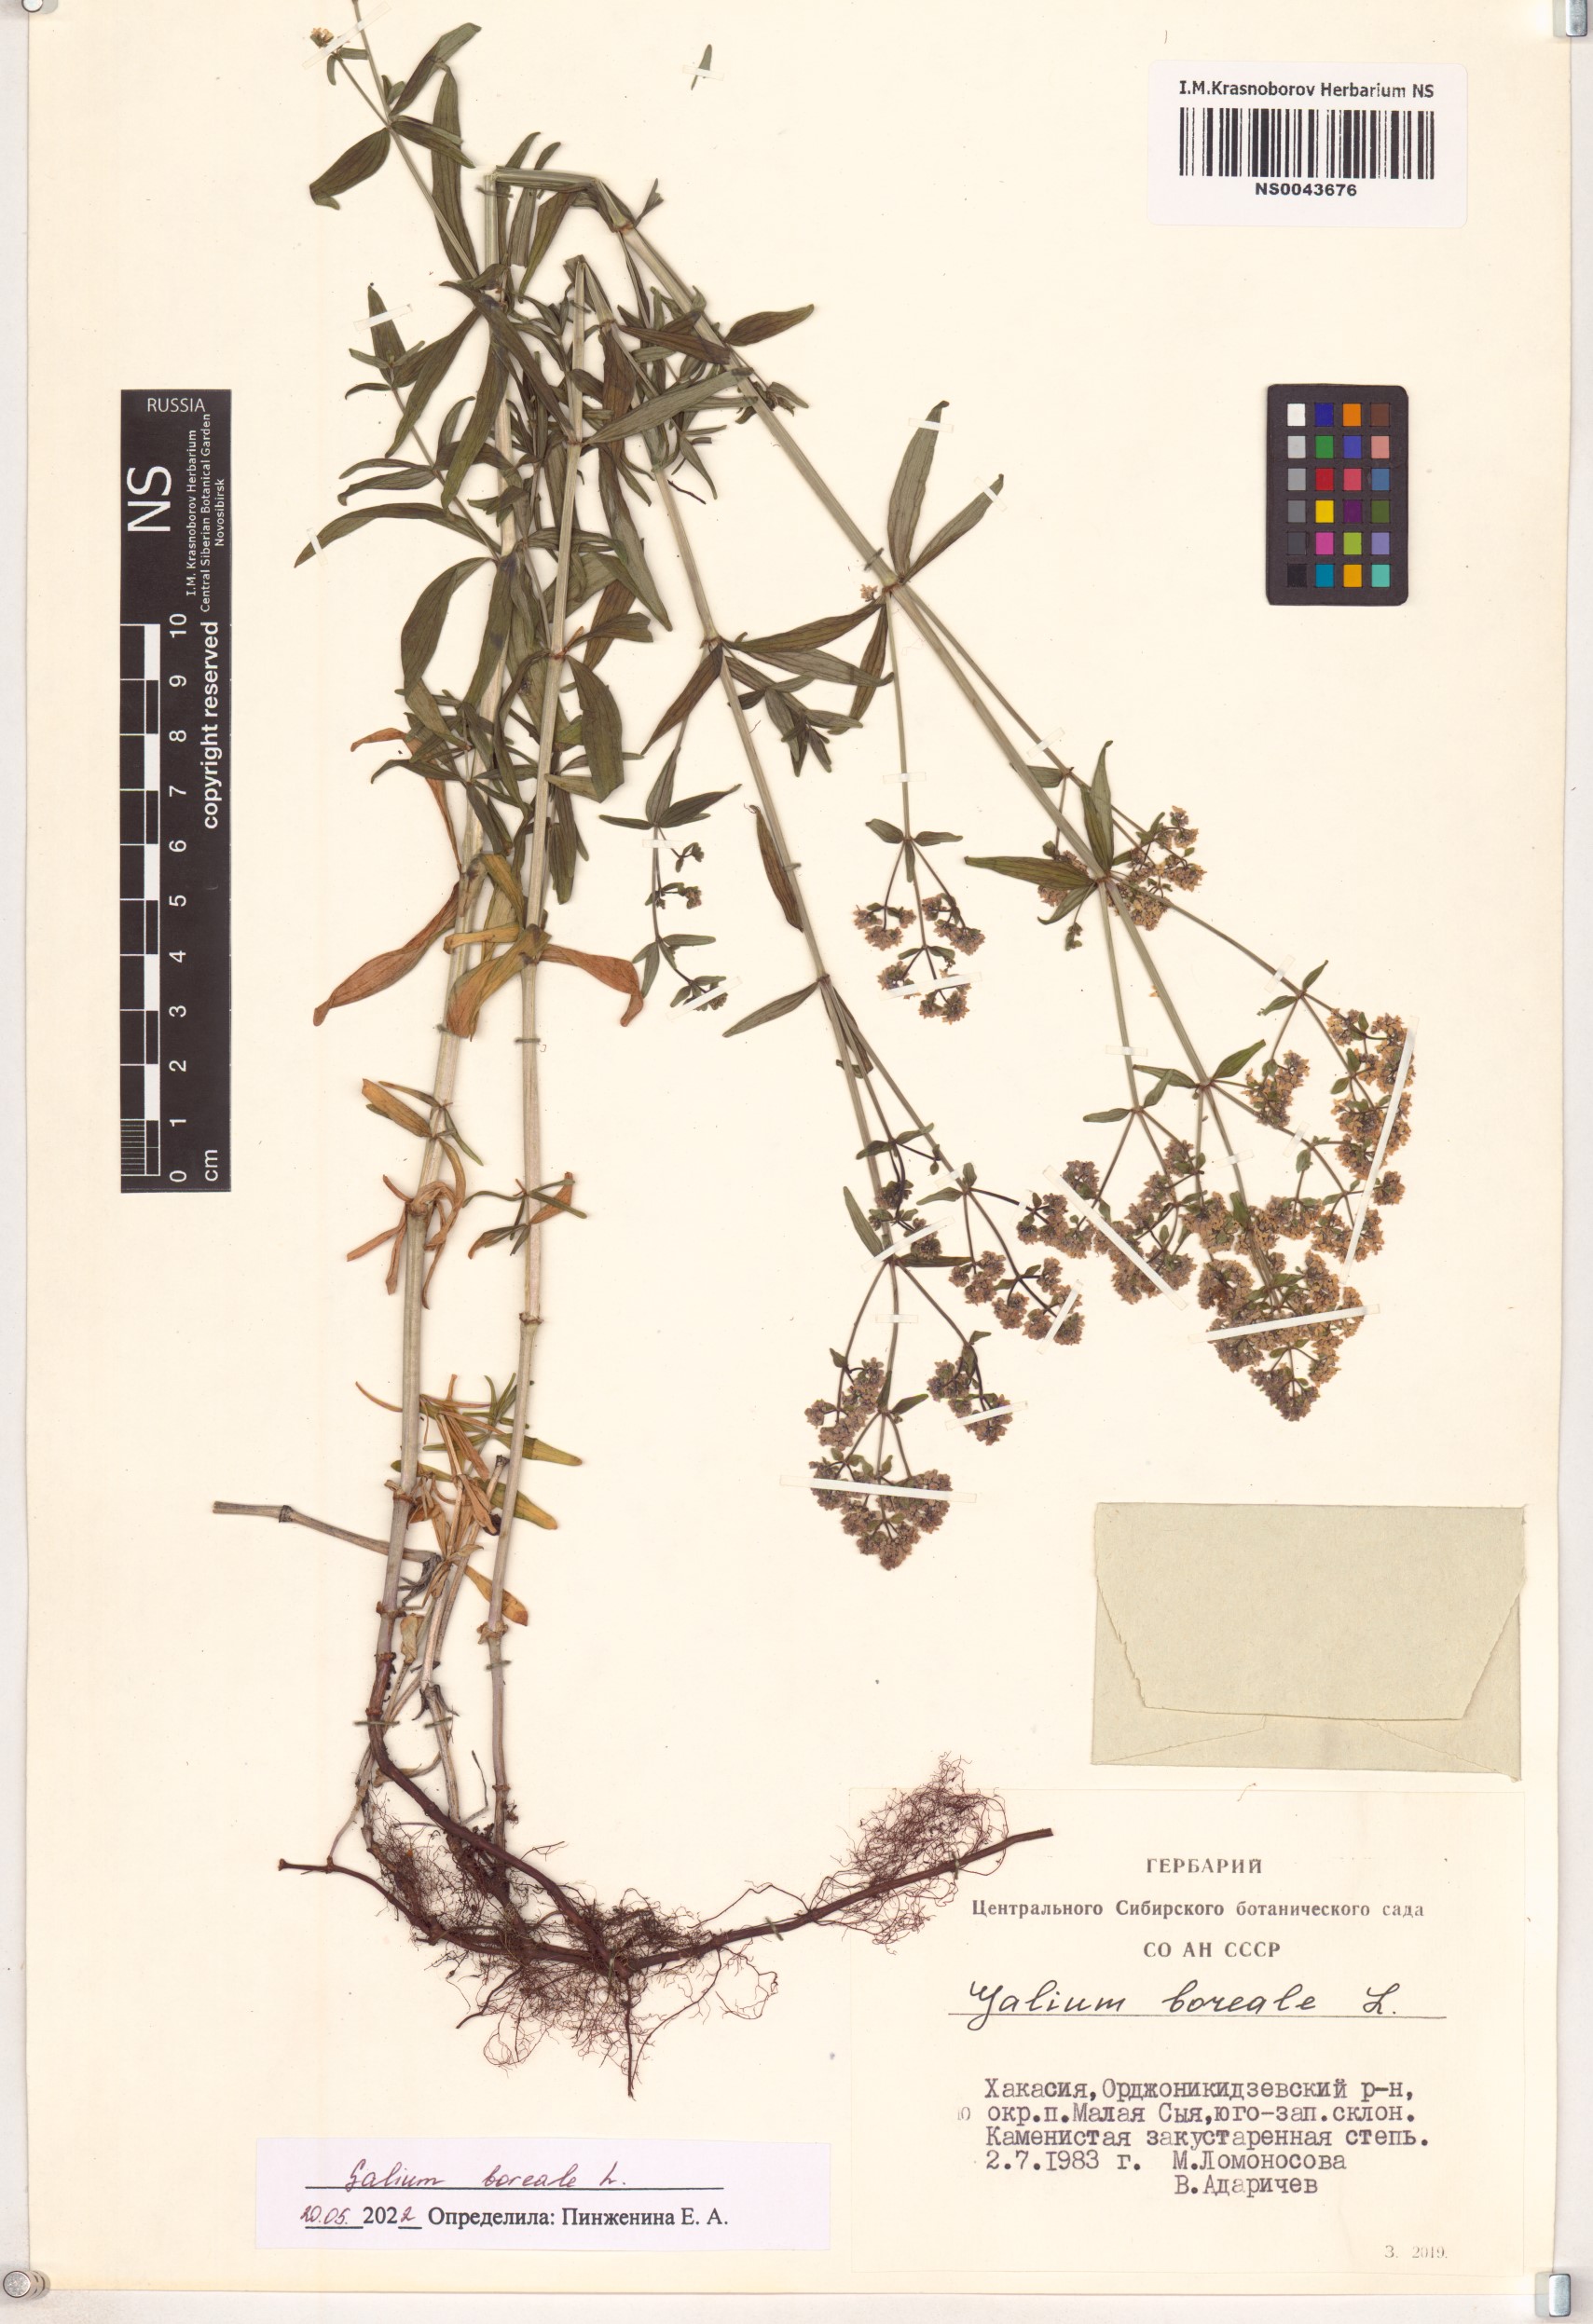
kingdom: Plantae
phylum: Tracheophyta
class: Magnoliopsida
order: Gentianales
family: Rubiaceae
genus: Galium
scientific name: Galium boreale
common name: Northern bedstraw
